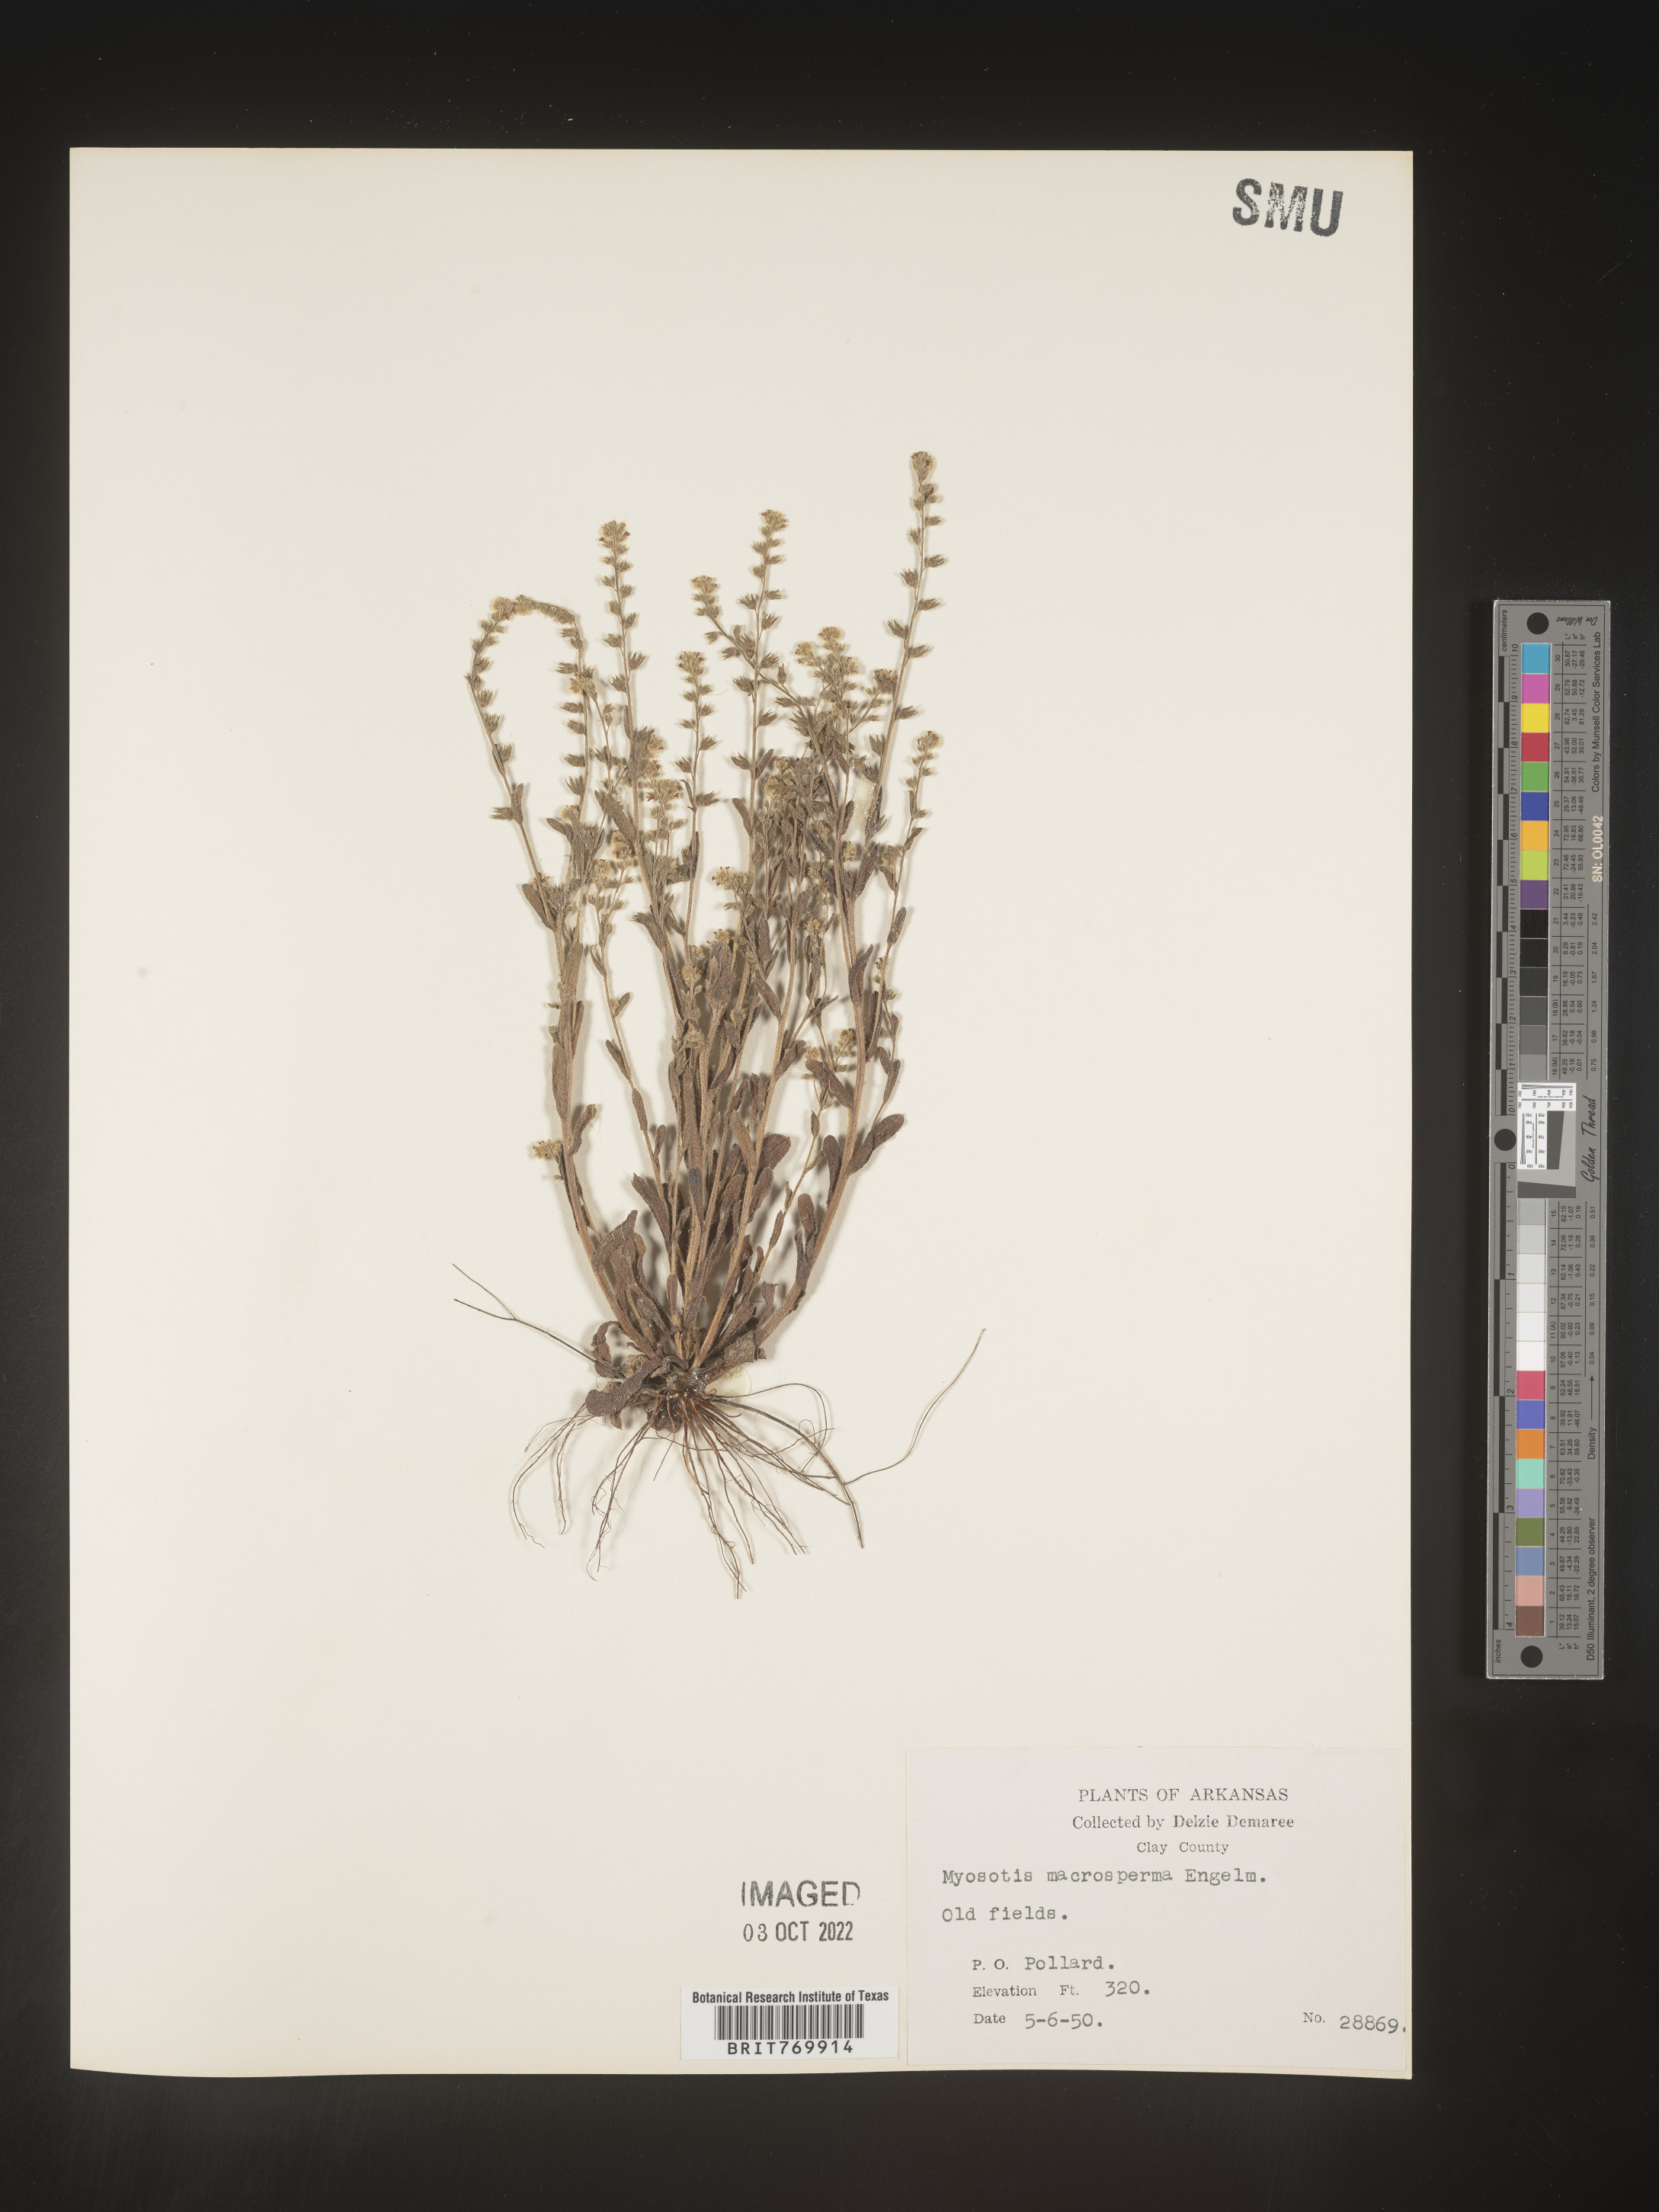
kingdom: Plantae
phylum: Tracheophyta
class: Magnoliopsida
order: Boraginales
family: Boraginaceae
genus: Myosotis
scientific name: Myosotis verna
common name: Early forget-me-not
